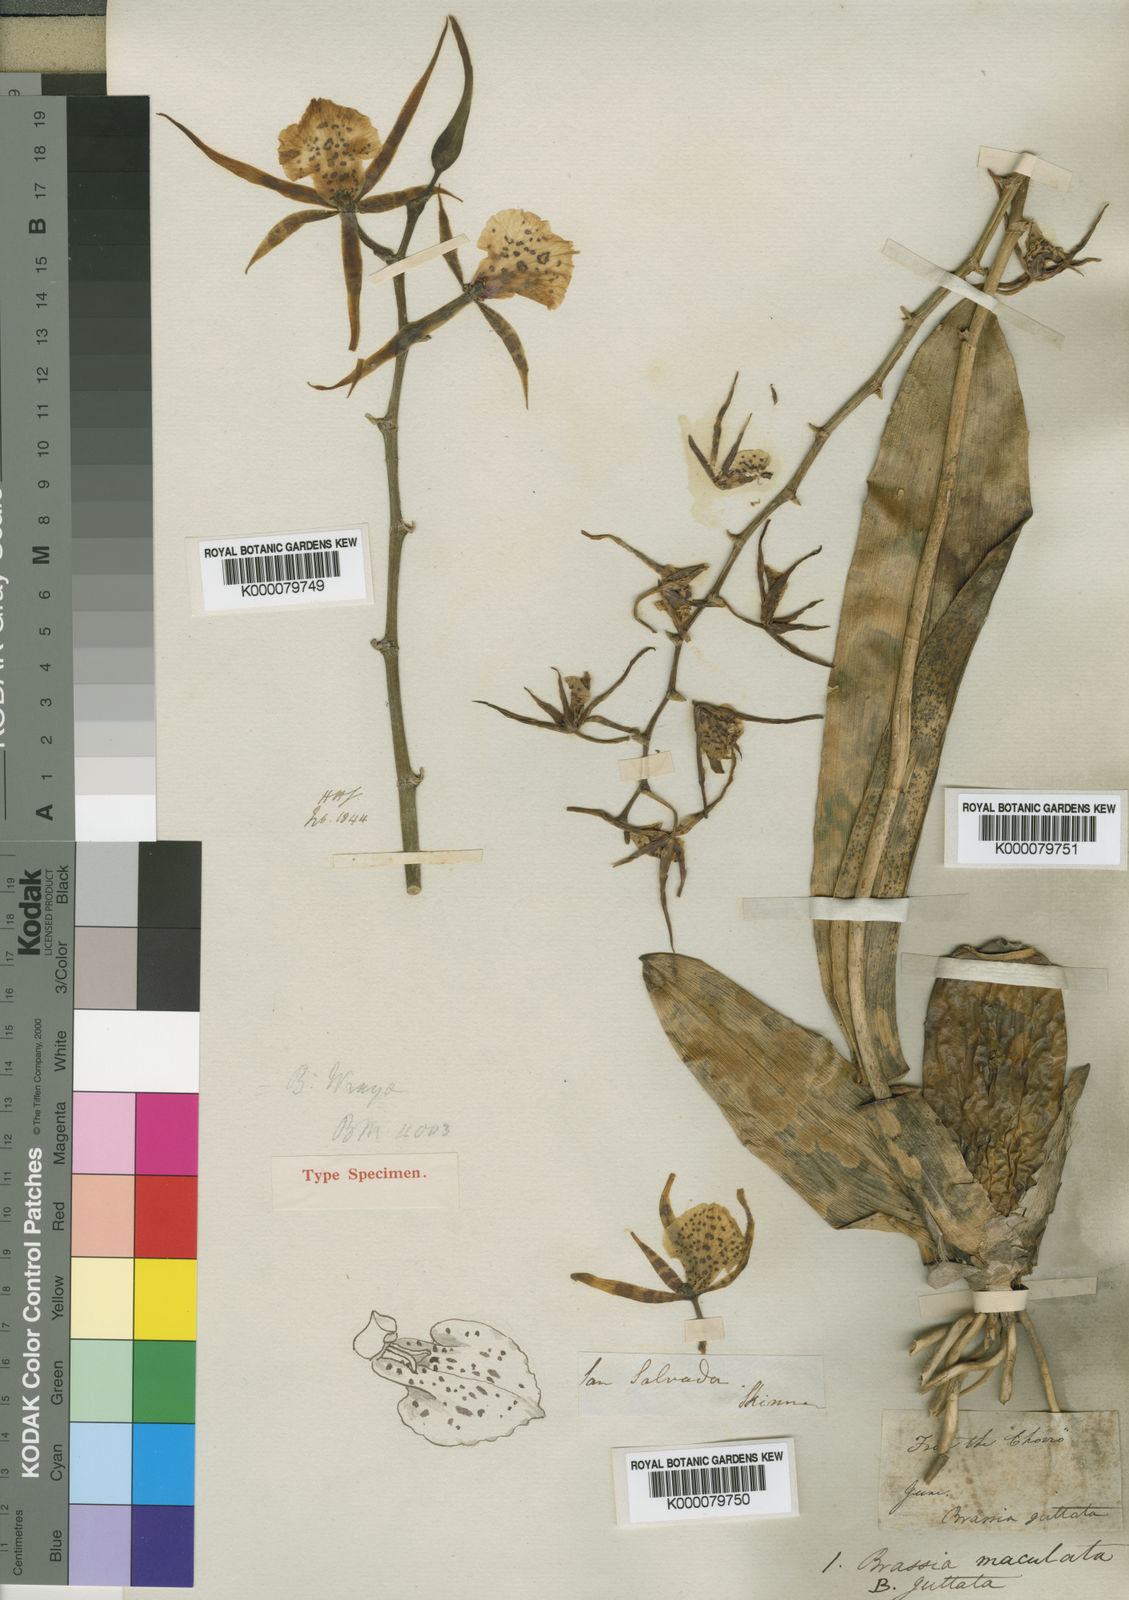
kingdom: Plantae
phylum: Tracheophyta
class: Liliopsida
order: Asparagales
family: Orchidaceae
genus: Brassia
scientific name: Brassia maculata
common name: Spotted spider orchid
